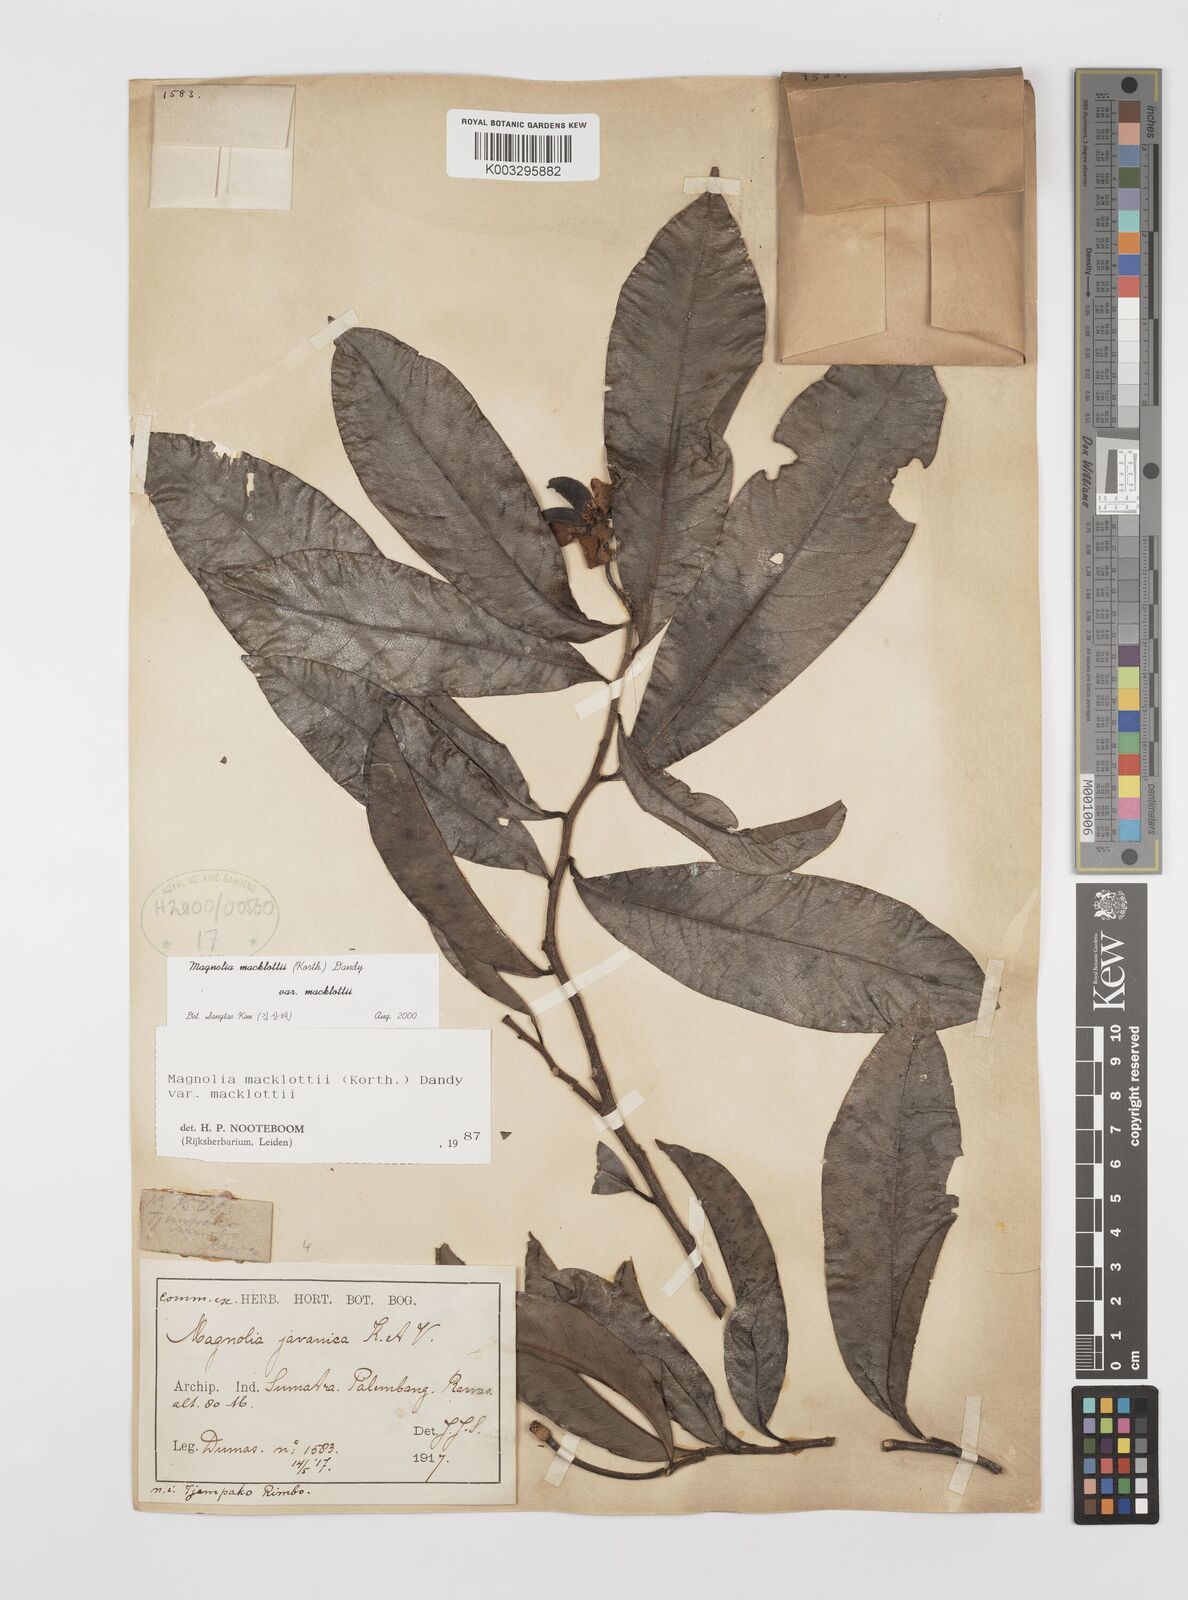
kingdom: Plantae
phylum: Tracheophyta
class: Magnoliopsida
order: Magnoliales
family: Magnoliaceae
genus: Magnolia
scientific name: Magnolia macklottii
